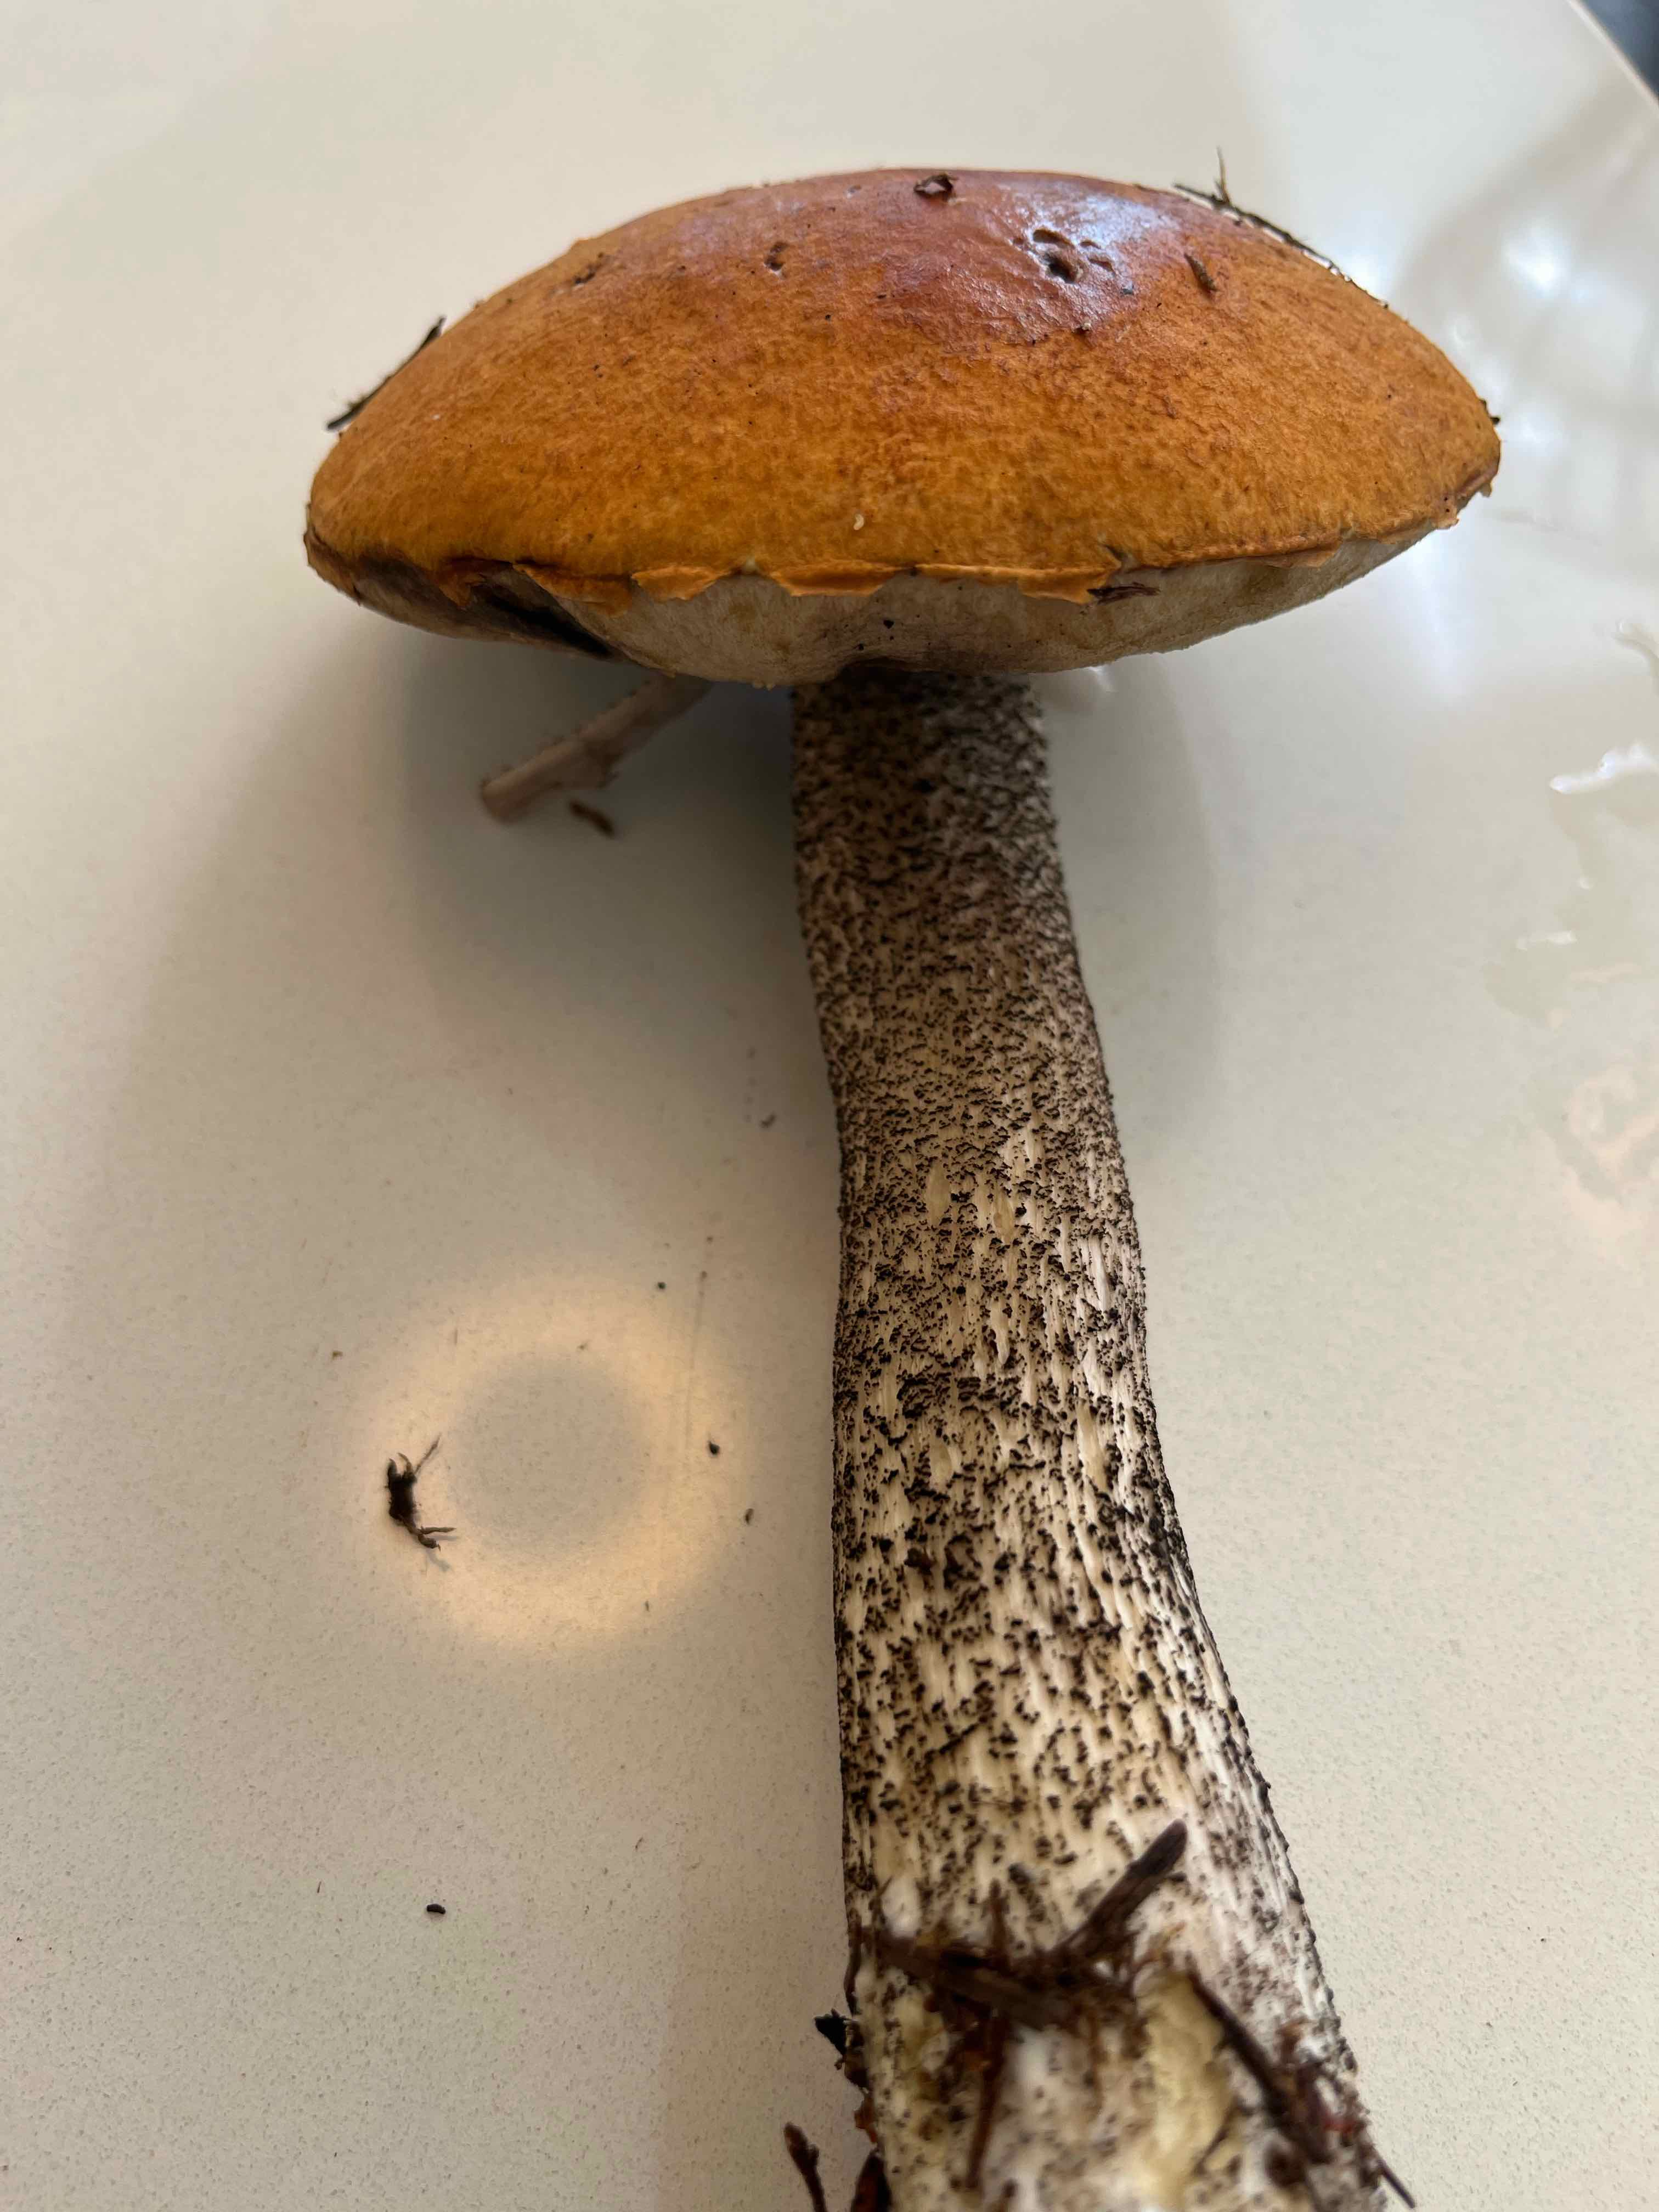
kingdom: Fungi
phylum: Basidiomycota
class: Agaricomycetes
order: Boletales
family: Boletaceae
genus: Leccinum
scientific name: Leccinum scabrum
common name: brun skælrørhat
